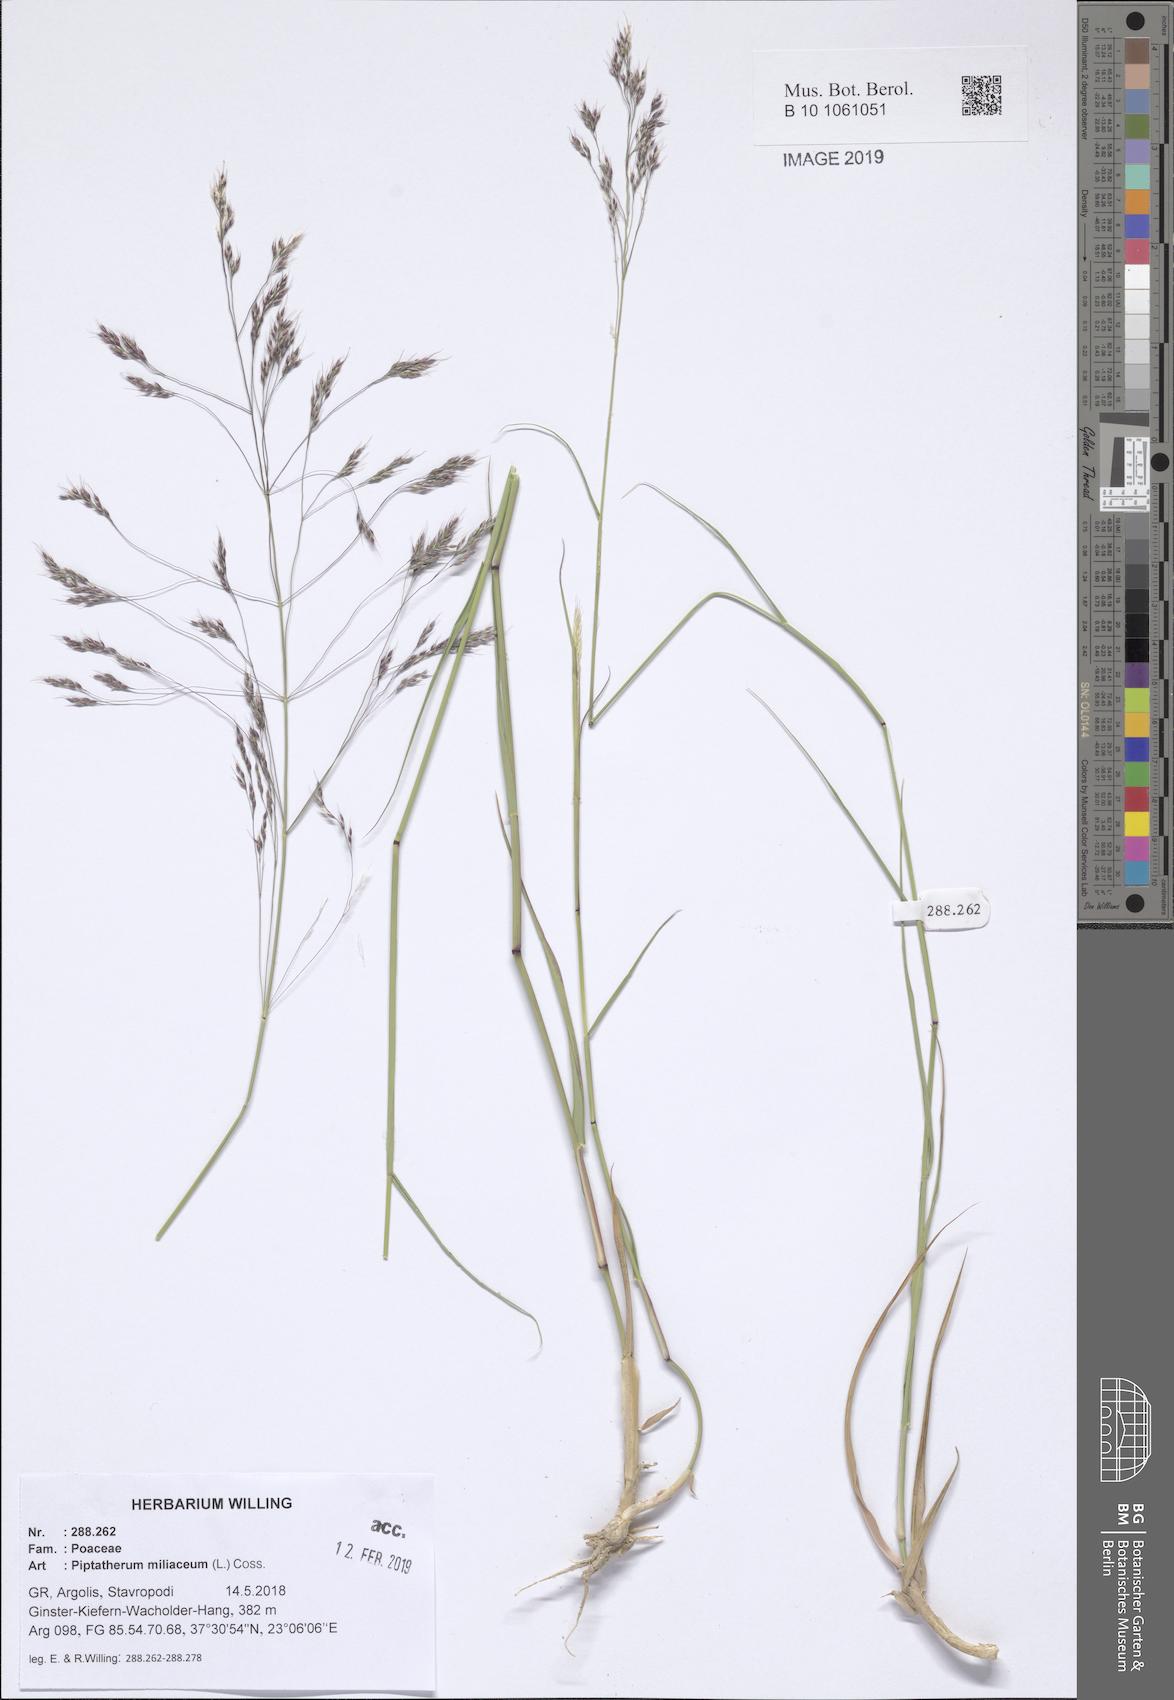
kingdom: Plantae
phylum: Tracheophyta
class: Liliopsida
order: Poales
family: Poaceae
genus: Oloptum
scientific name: Oloptum miliaceum
